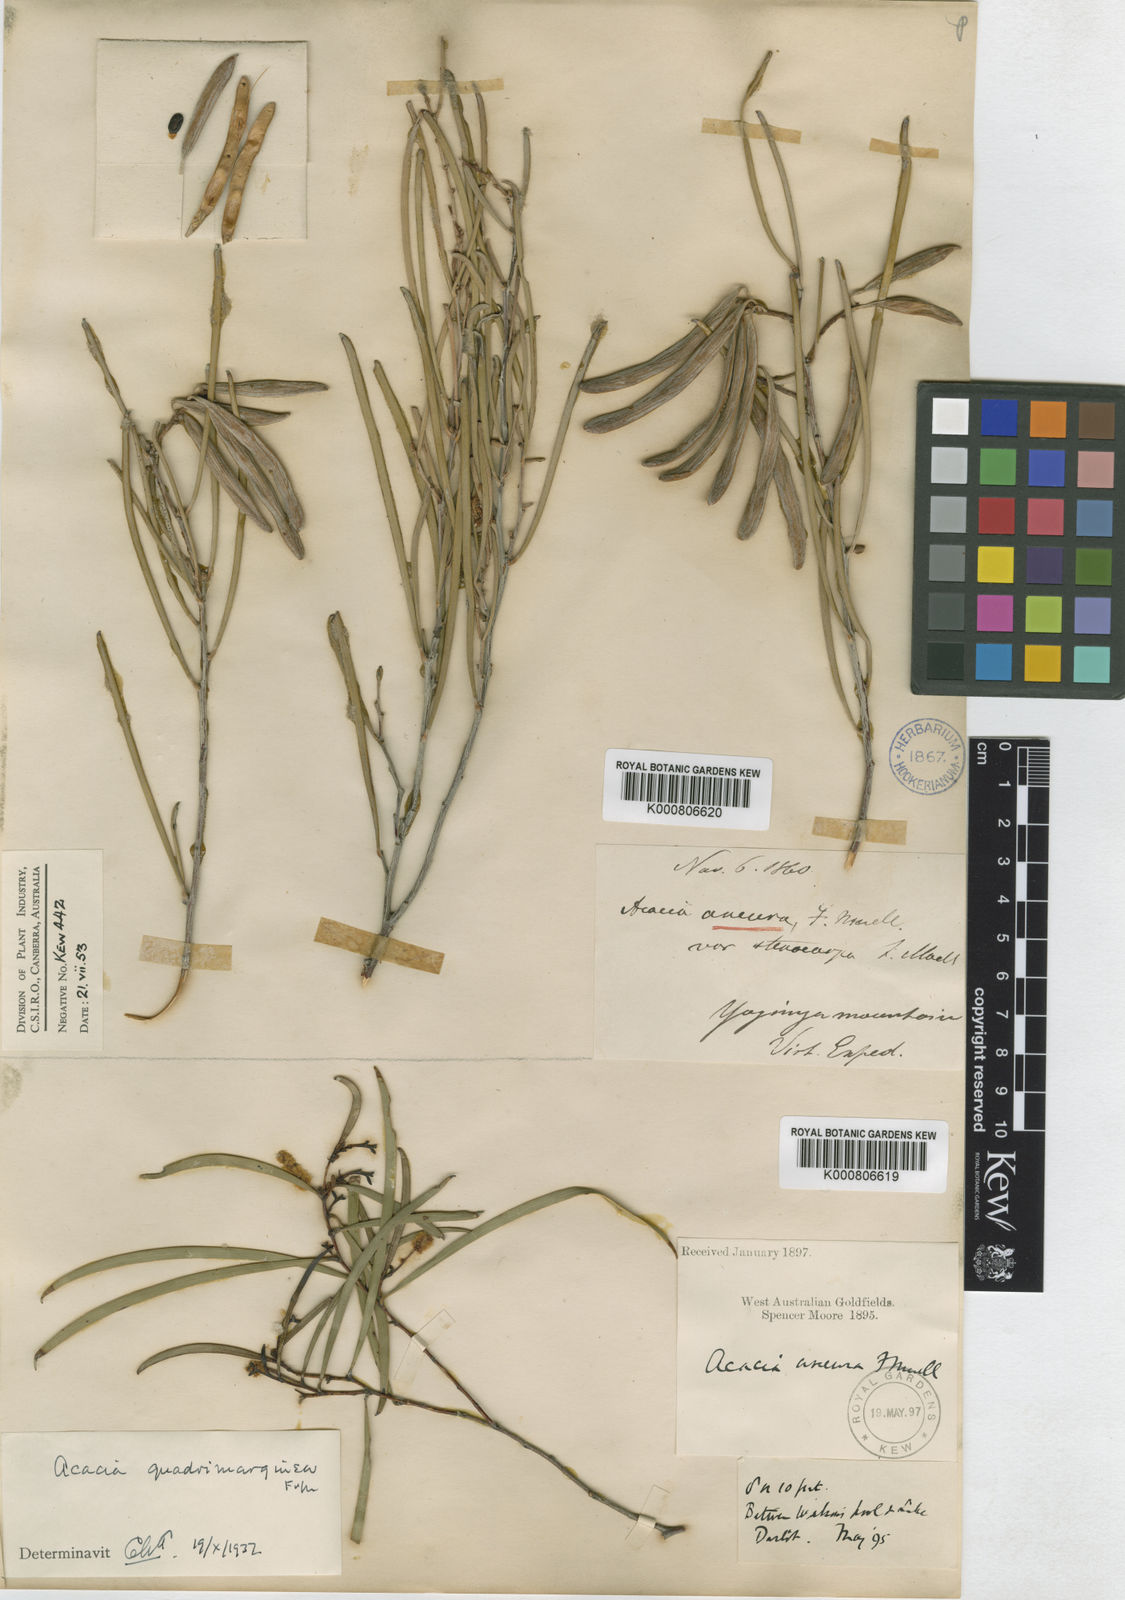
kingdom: Plantae
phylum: Tracheophyta
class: Magnoliopsida
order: Fabales
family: Fabaceae
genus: Acacia
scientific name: Acacia
